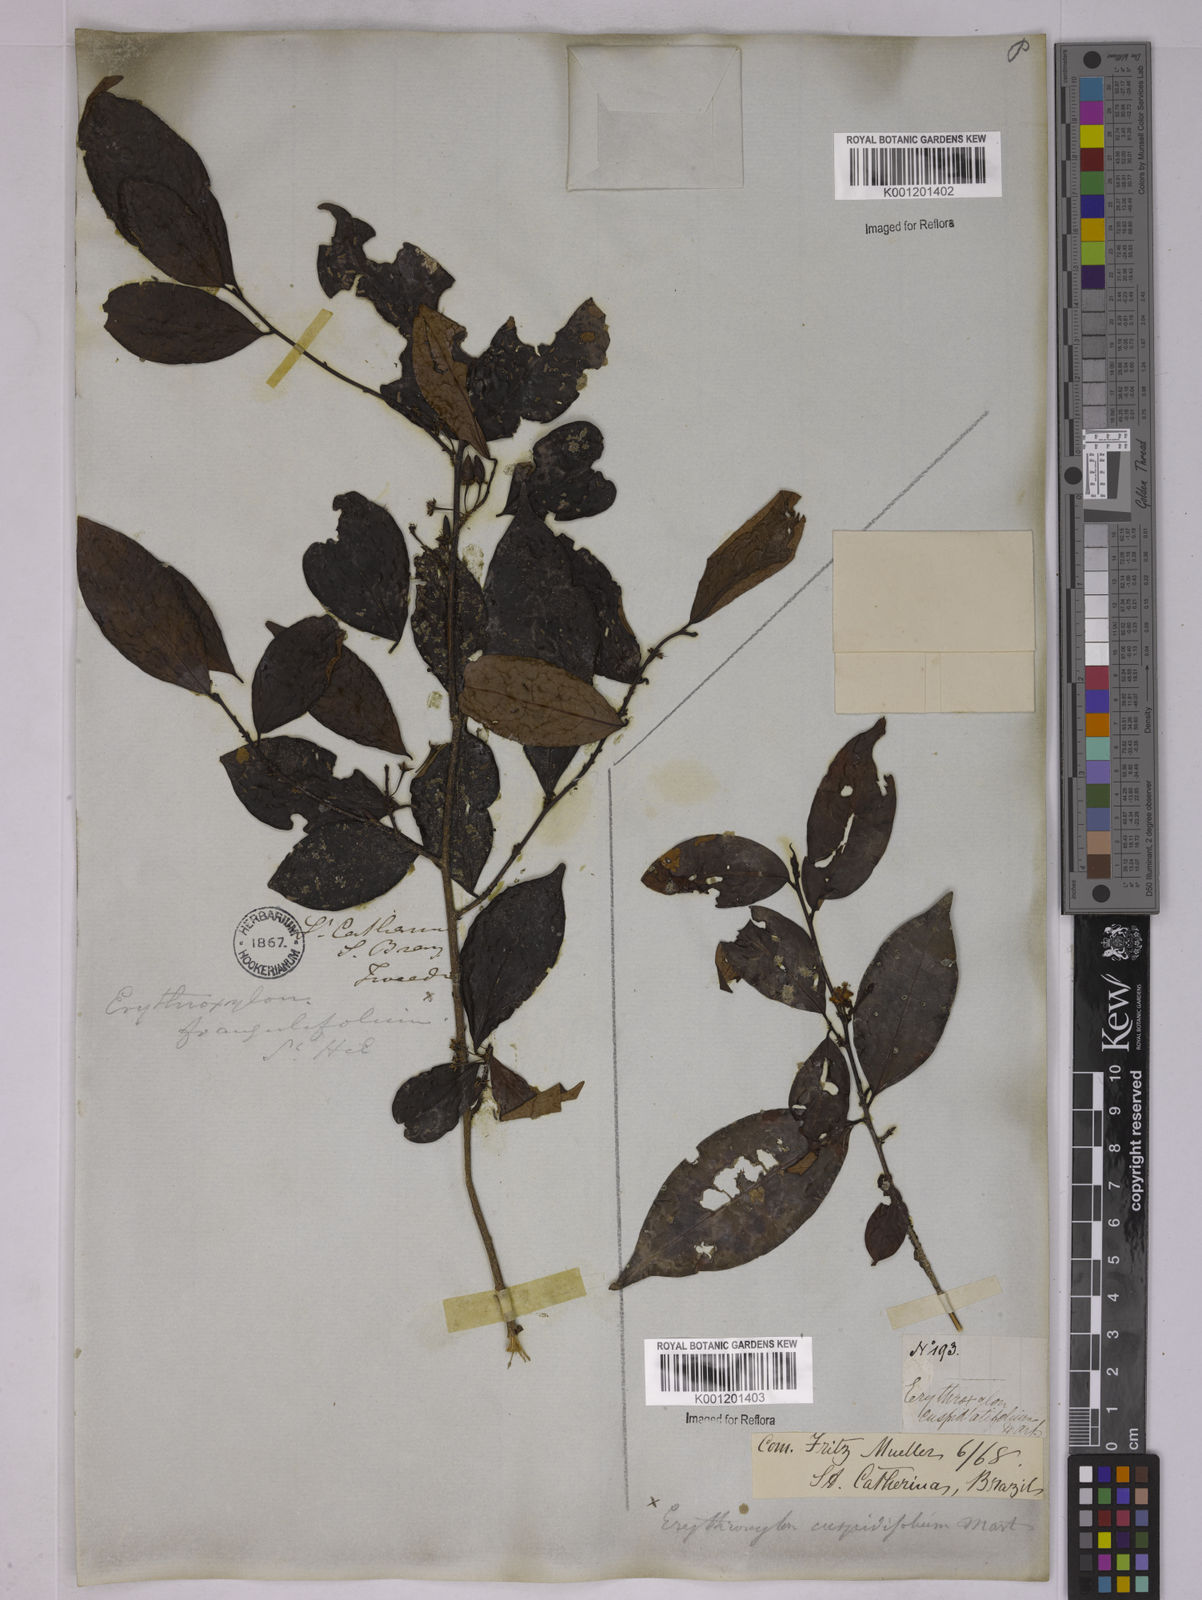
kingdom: Plantae
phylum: Tracheophyta
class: Magnoliopsida
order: Malpighiales
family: Erythroxylaceae
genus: Erythroxylum
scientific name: Erythroxylum cuspidifolium
